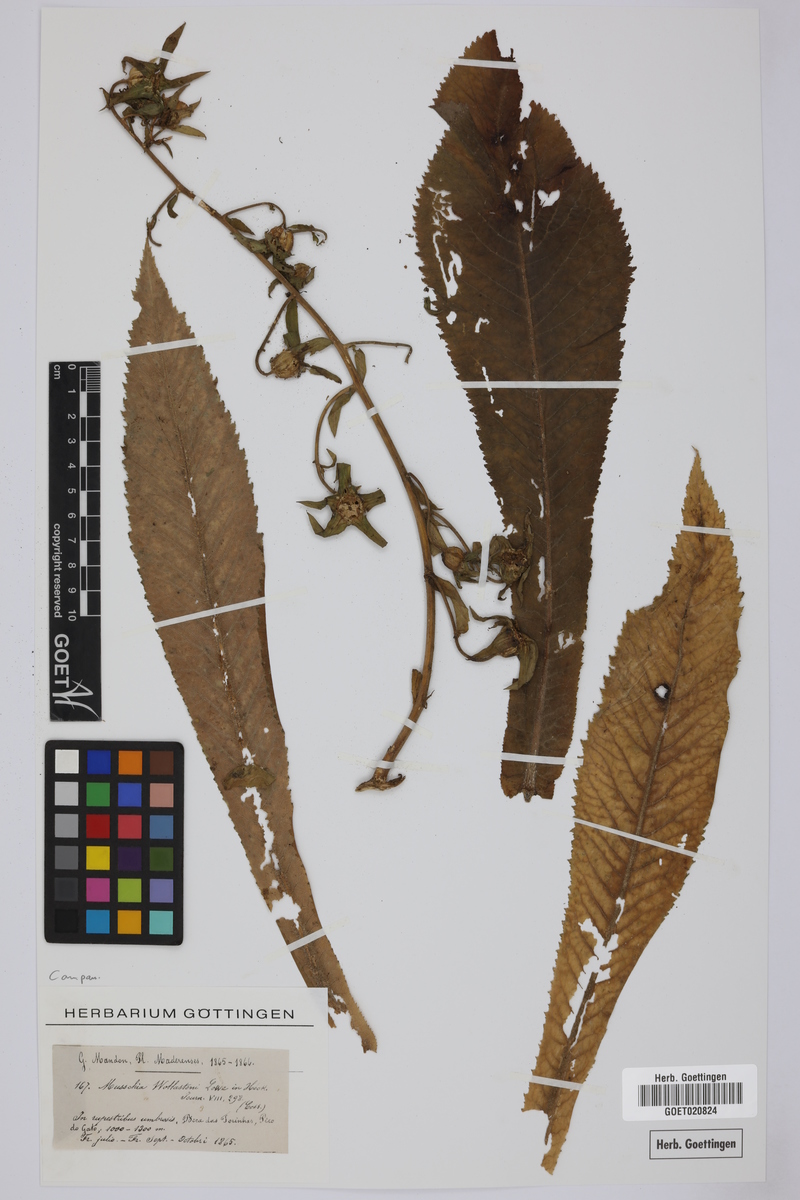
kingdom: Plantae
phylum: Tracheophyta
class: Magnoliopsida
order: Asterales
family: Campanulaceae
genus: Musschia
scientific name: Musschia wollastonii
